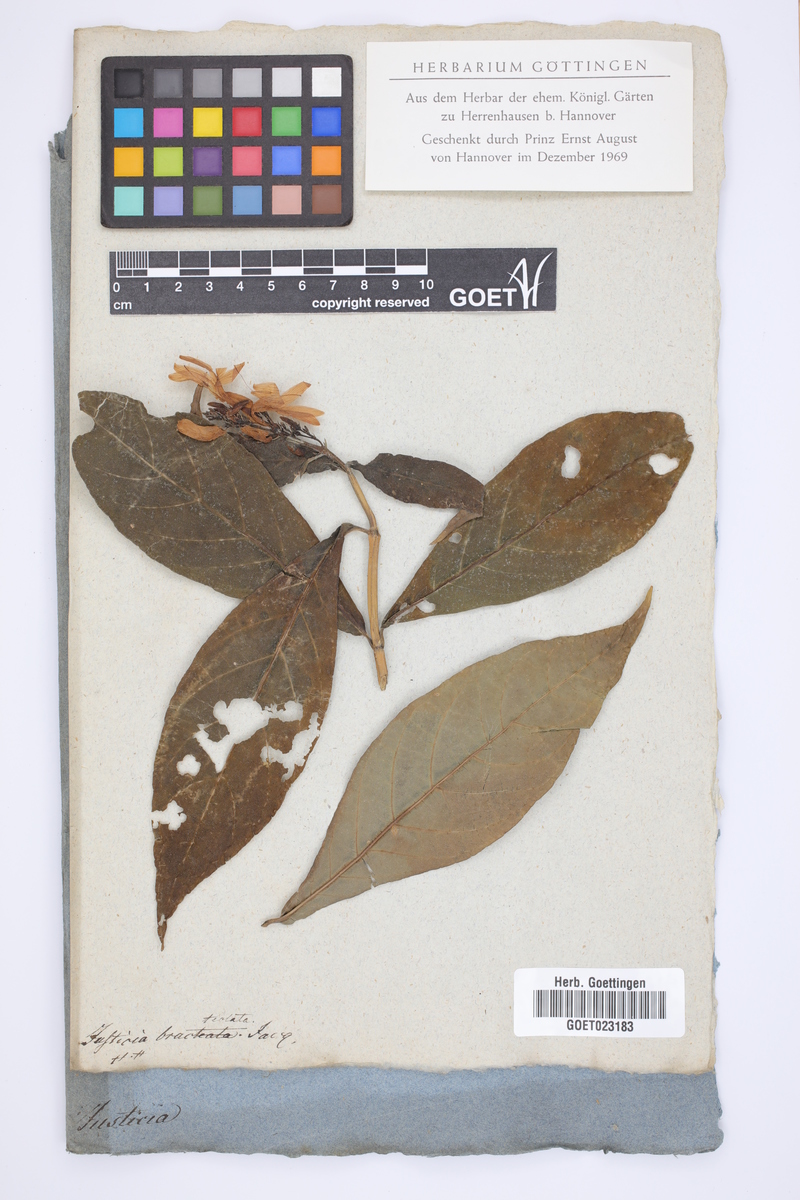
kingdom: Plantae
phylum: Tracheophyta
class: Magnoliopsida
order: Lamiales
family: Acanthaceae
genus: Odontonema
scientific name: Odontonema bracteolatum
